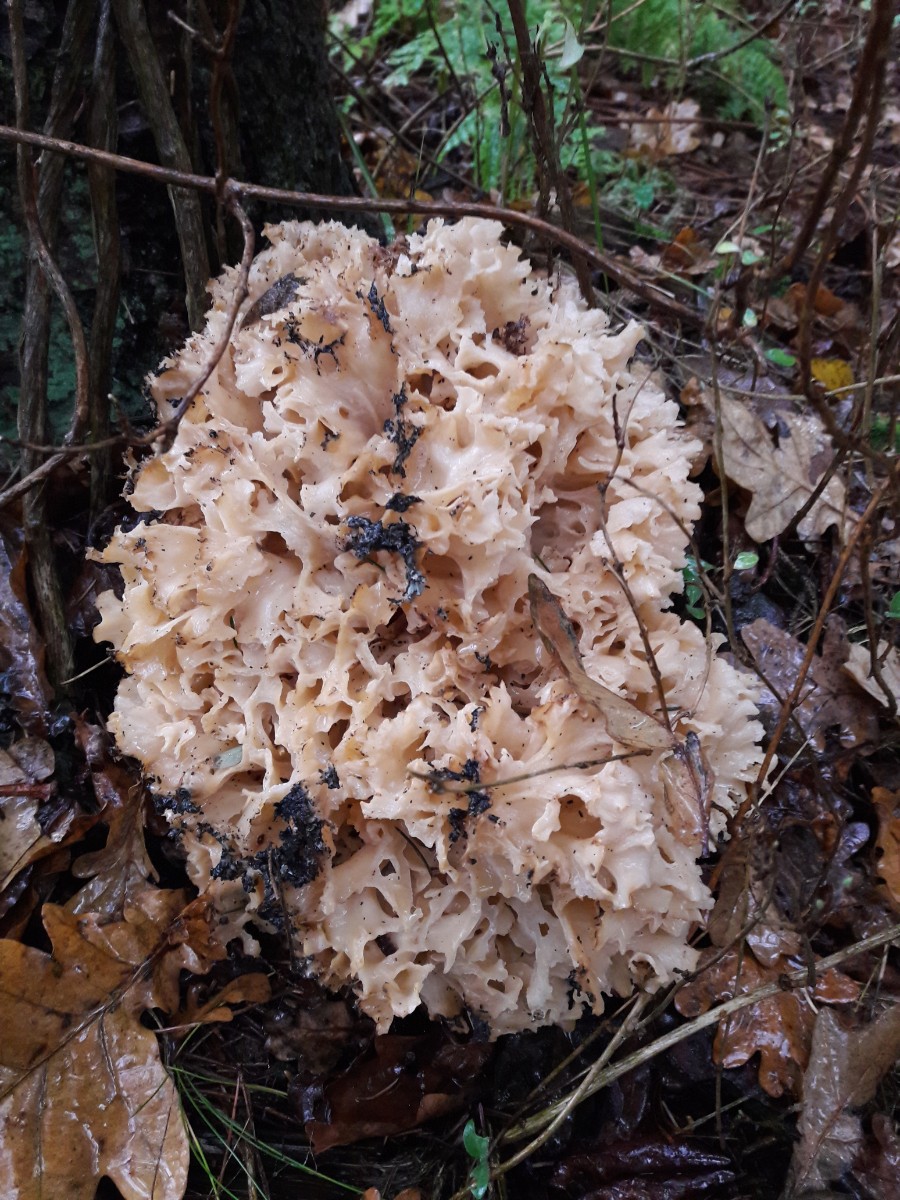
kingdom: Fungi
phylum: Basidiomycota
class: Agaricomycetes
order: Polyporales
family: Sparassidaceae
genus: Sparassis
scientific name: Sparassis crispa
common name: kruset blomkålssvamp
